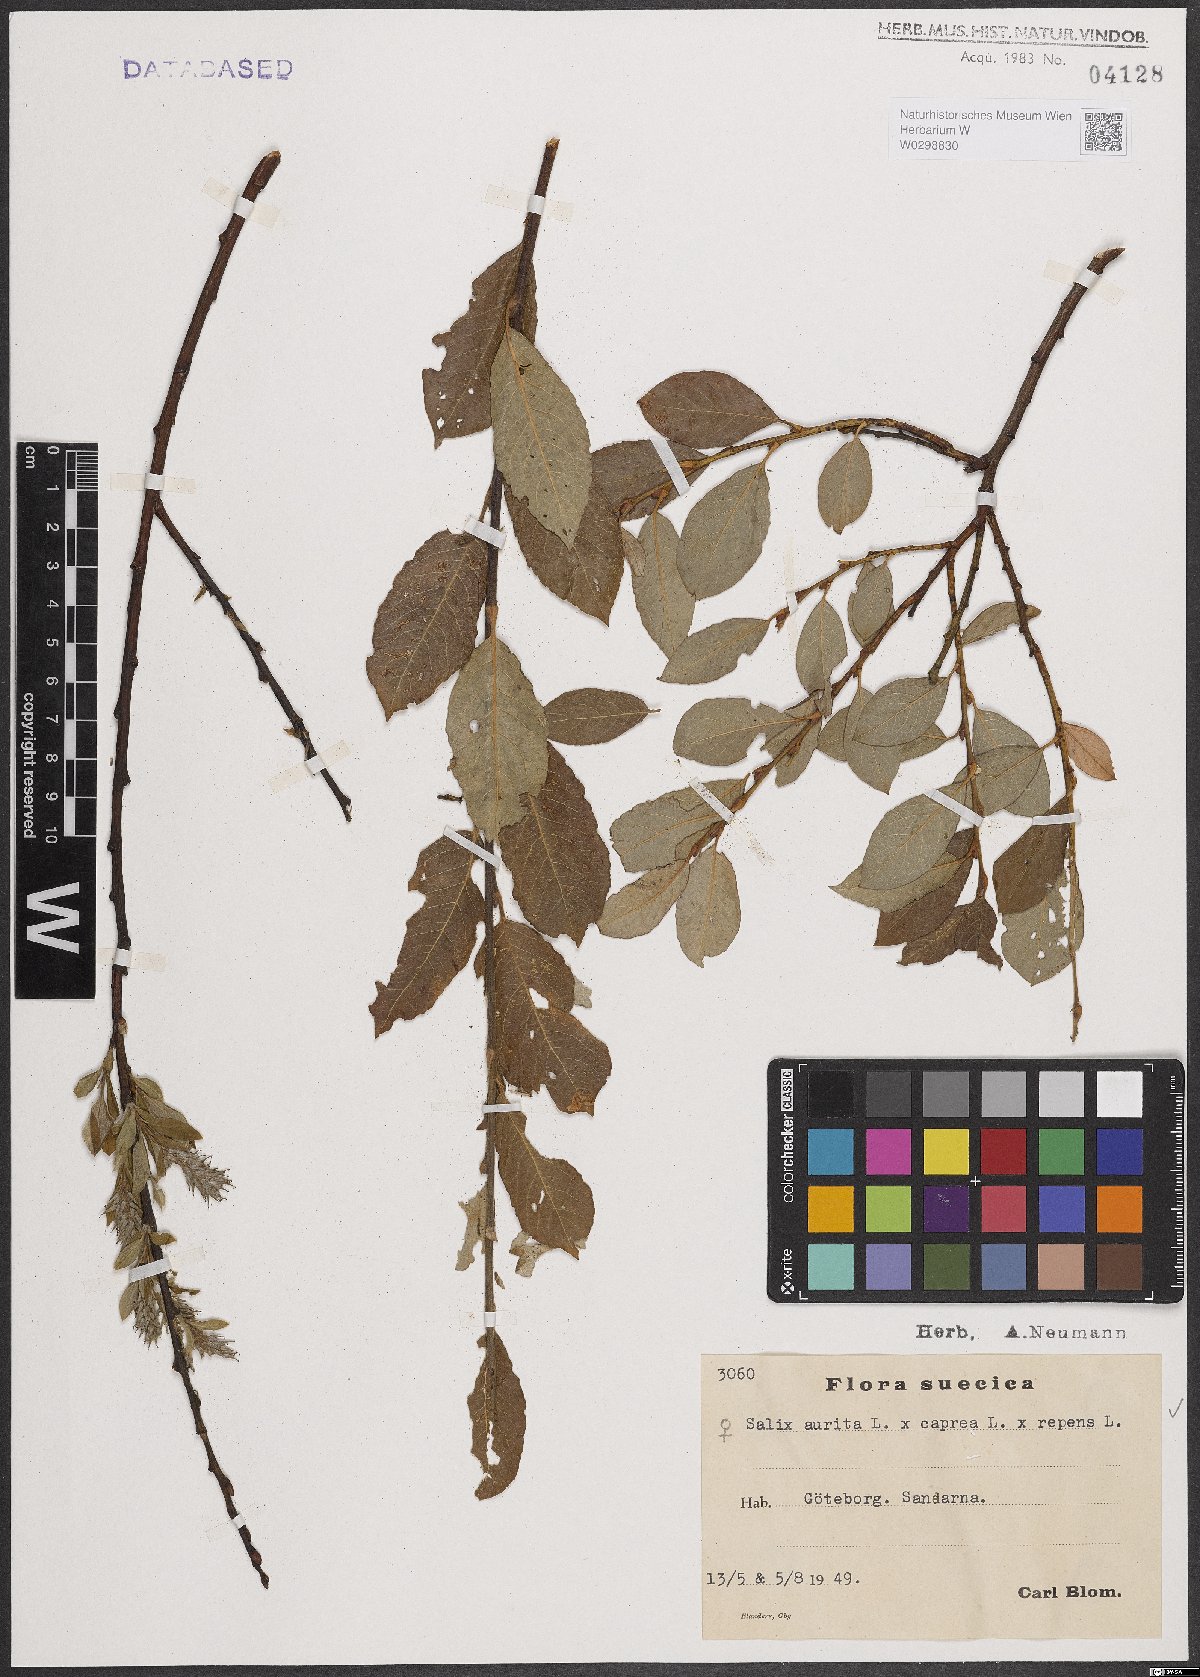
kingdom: Plantae
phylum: Tracheophyta
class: Magnoliopsida
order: Malpighiales
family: Salicaceae
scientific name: Salicaceae
